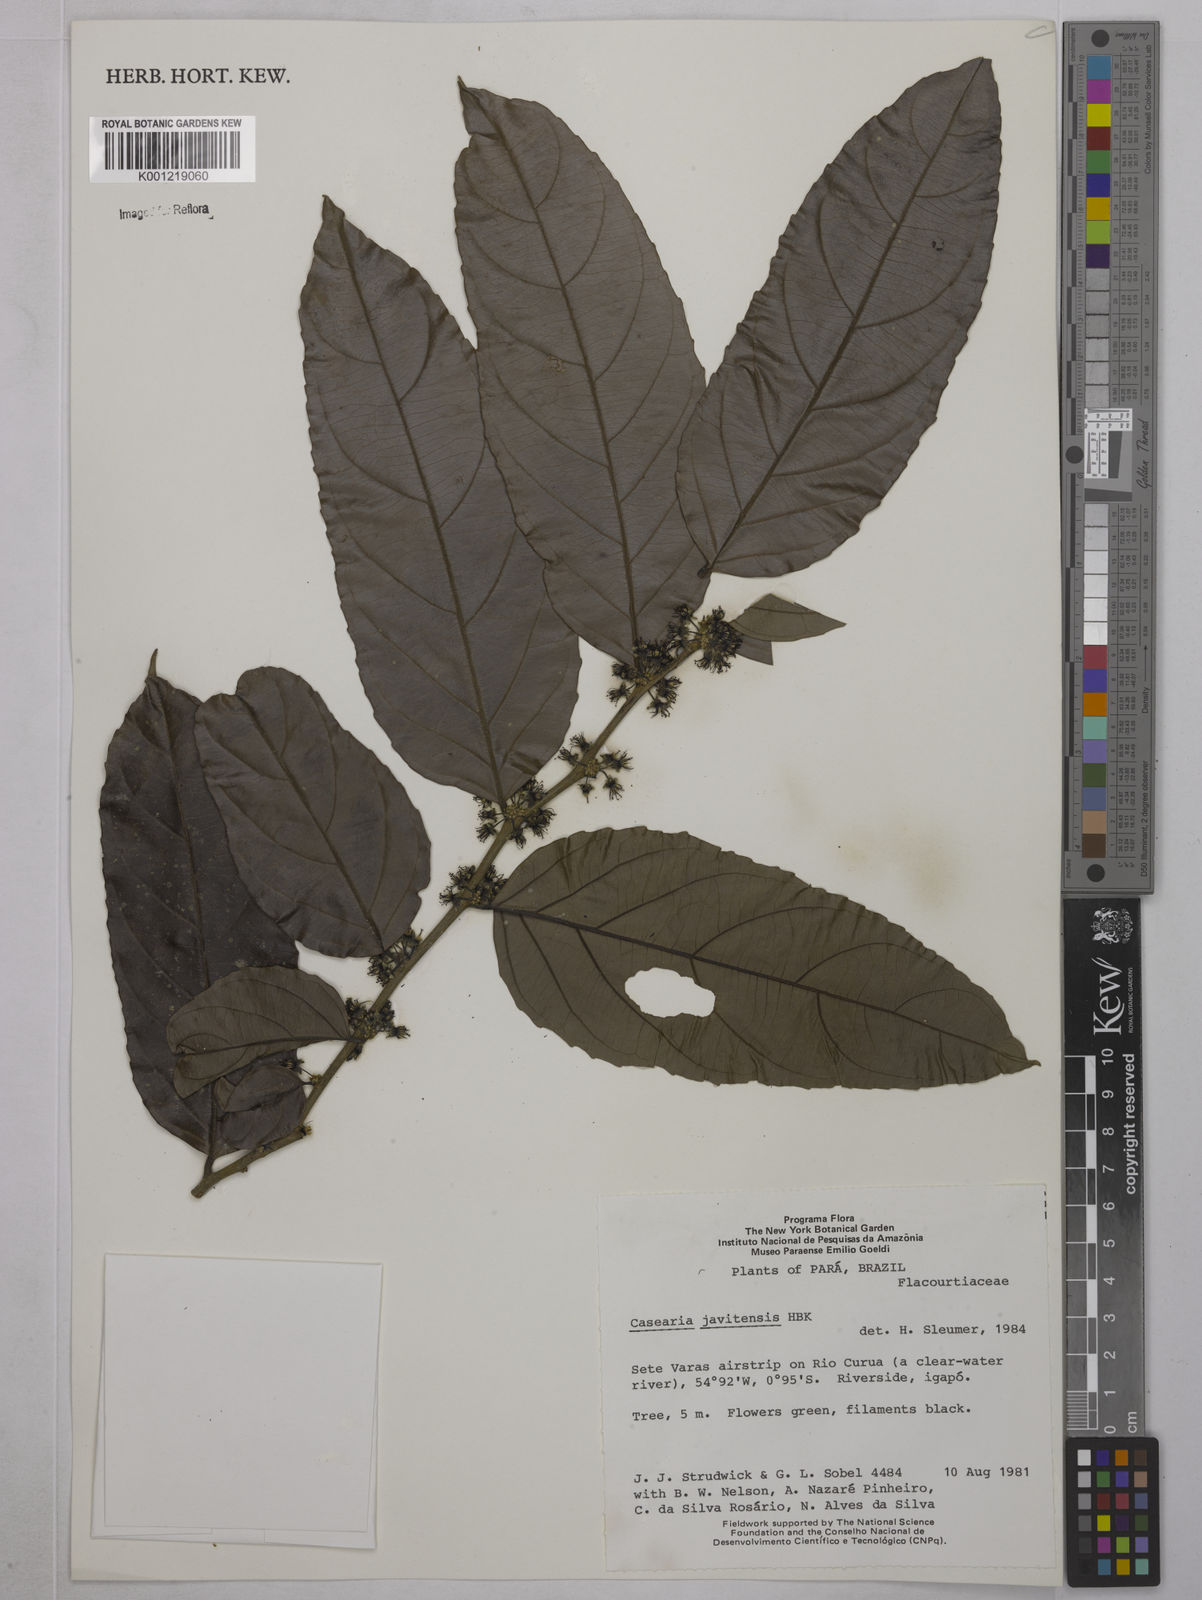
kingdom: Plantae
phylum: Tracheophyta
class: Magnoliopsida
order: Malpighiales
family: Salicaceae
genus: Piparea
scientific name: Piparea multiflora
